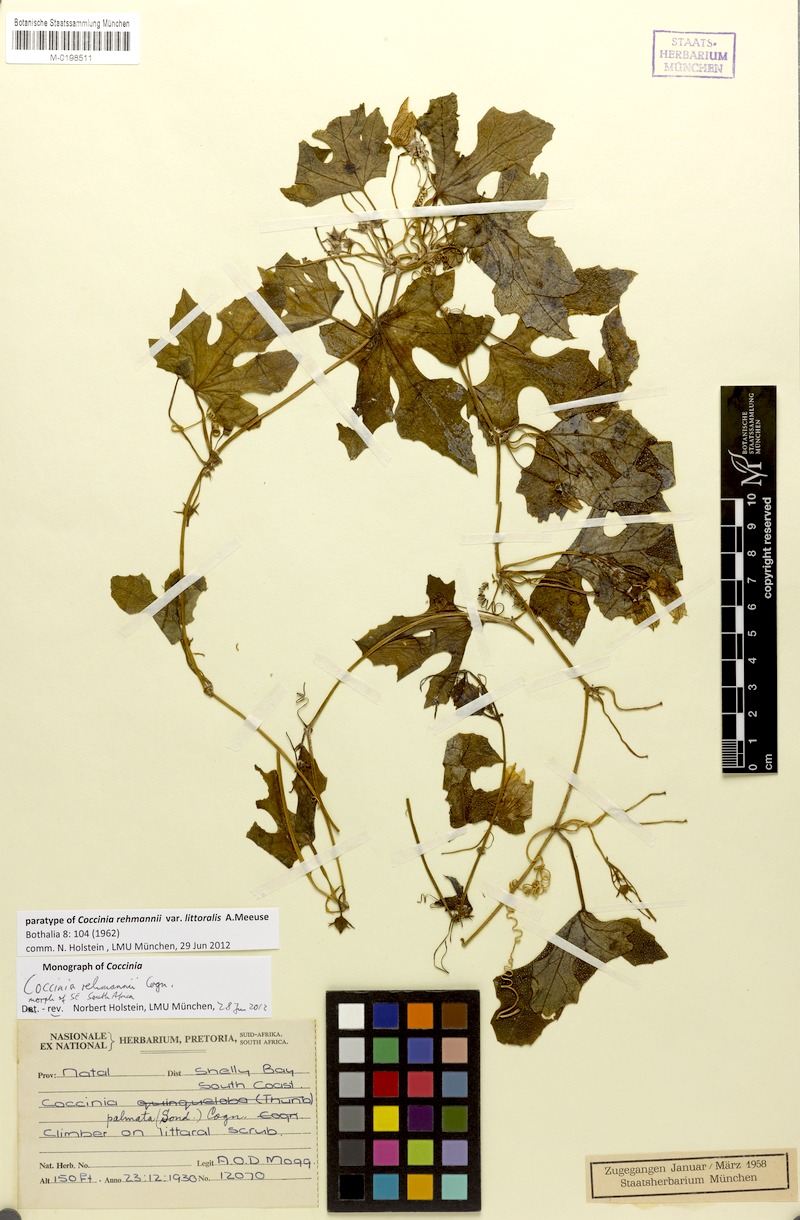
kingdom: Plantae
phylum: Tracheophyta
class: Magnoliopsida
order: Cucurbitales
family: Cucurbitaceae
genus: Coccinia
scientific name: Coccinia rehmannii
